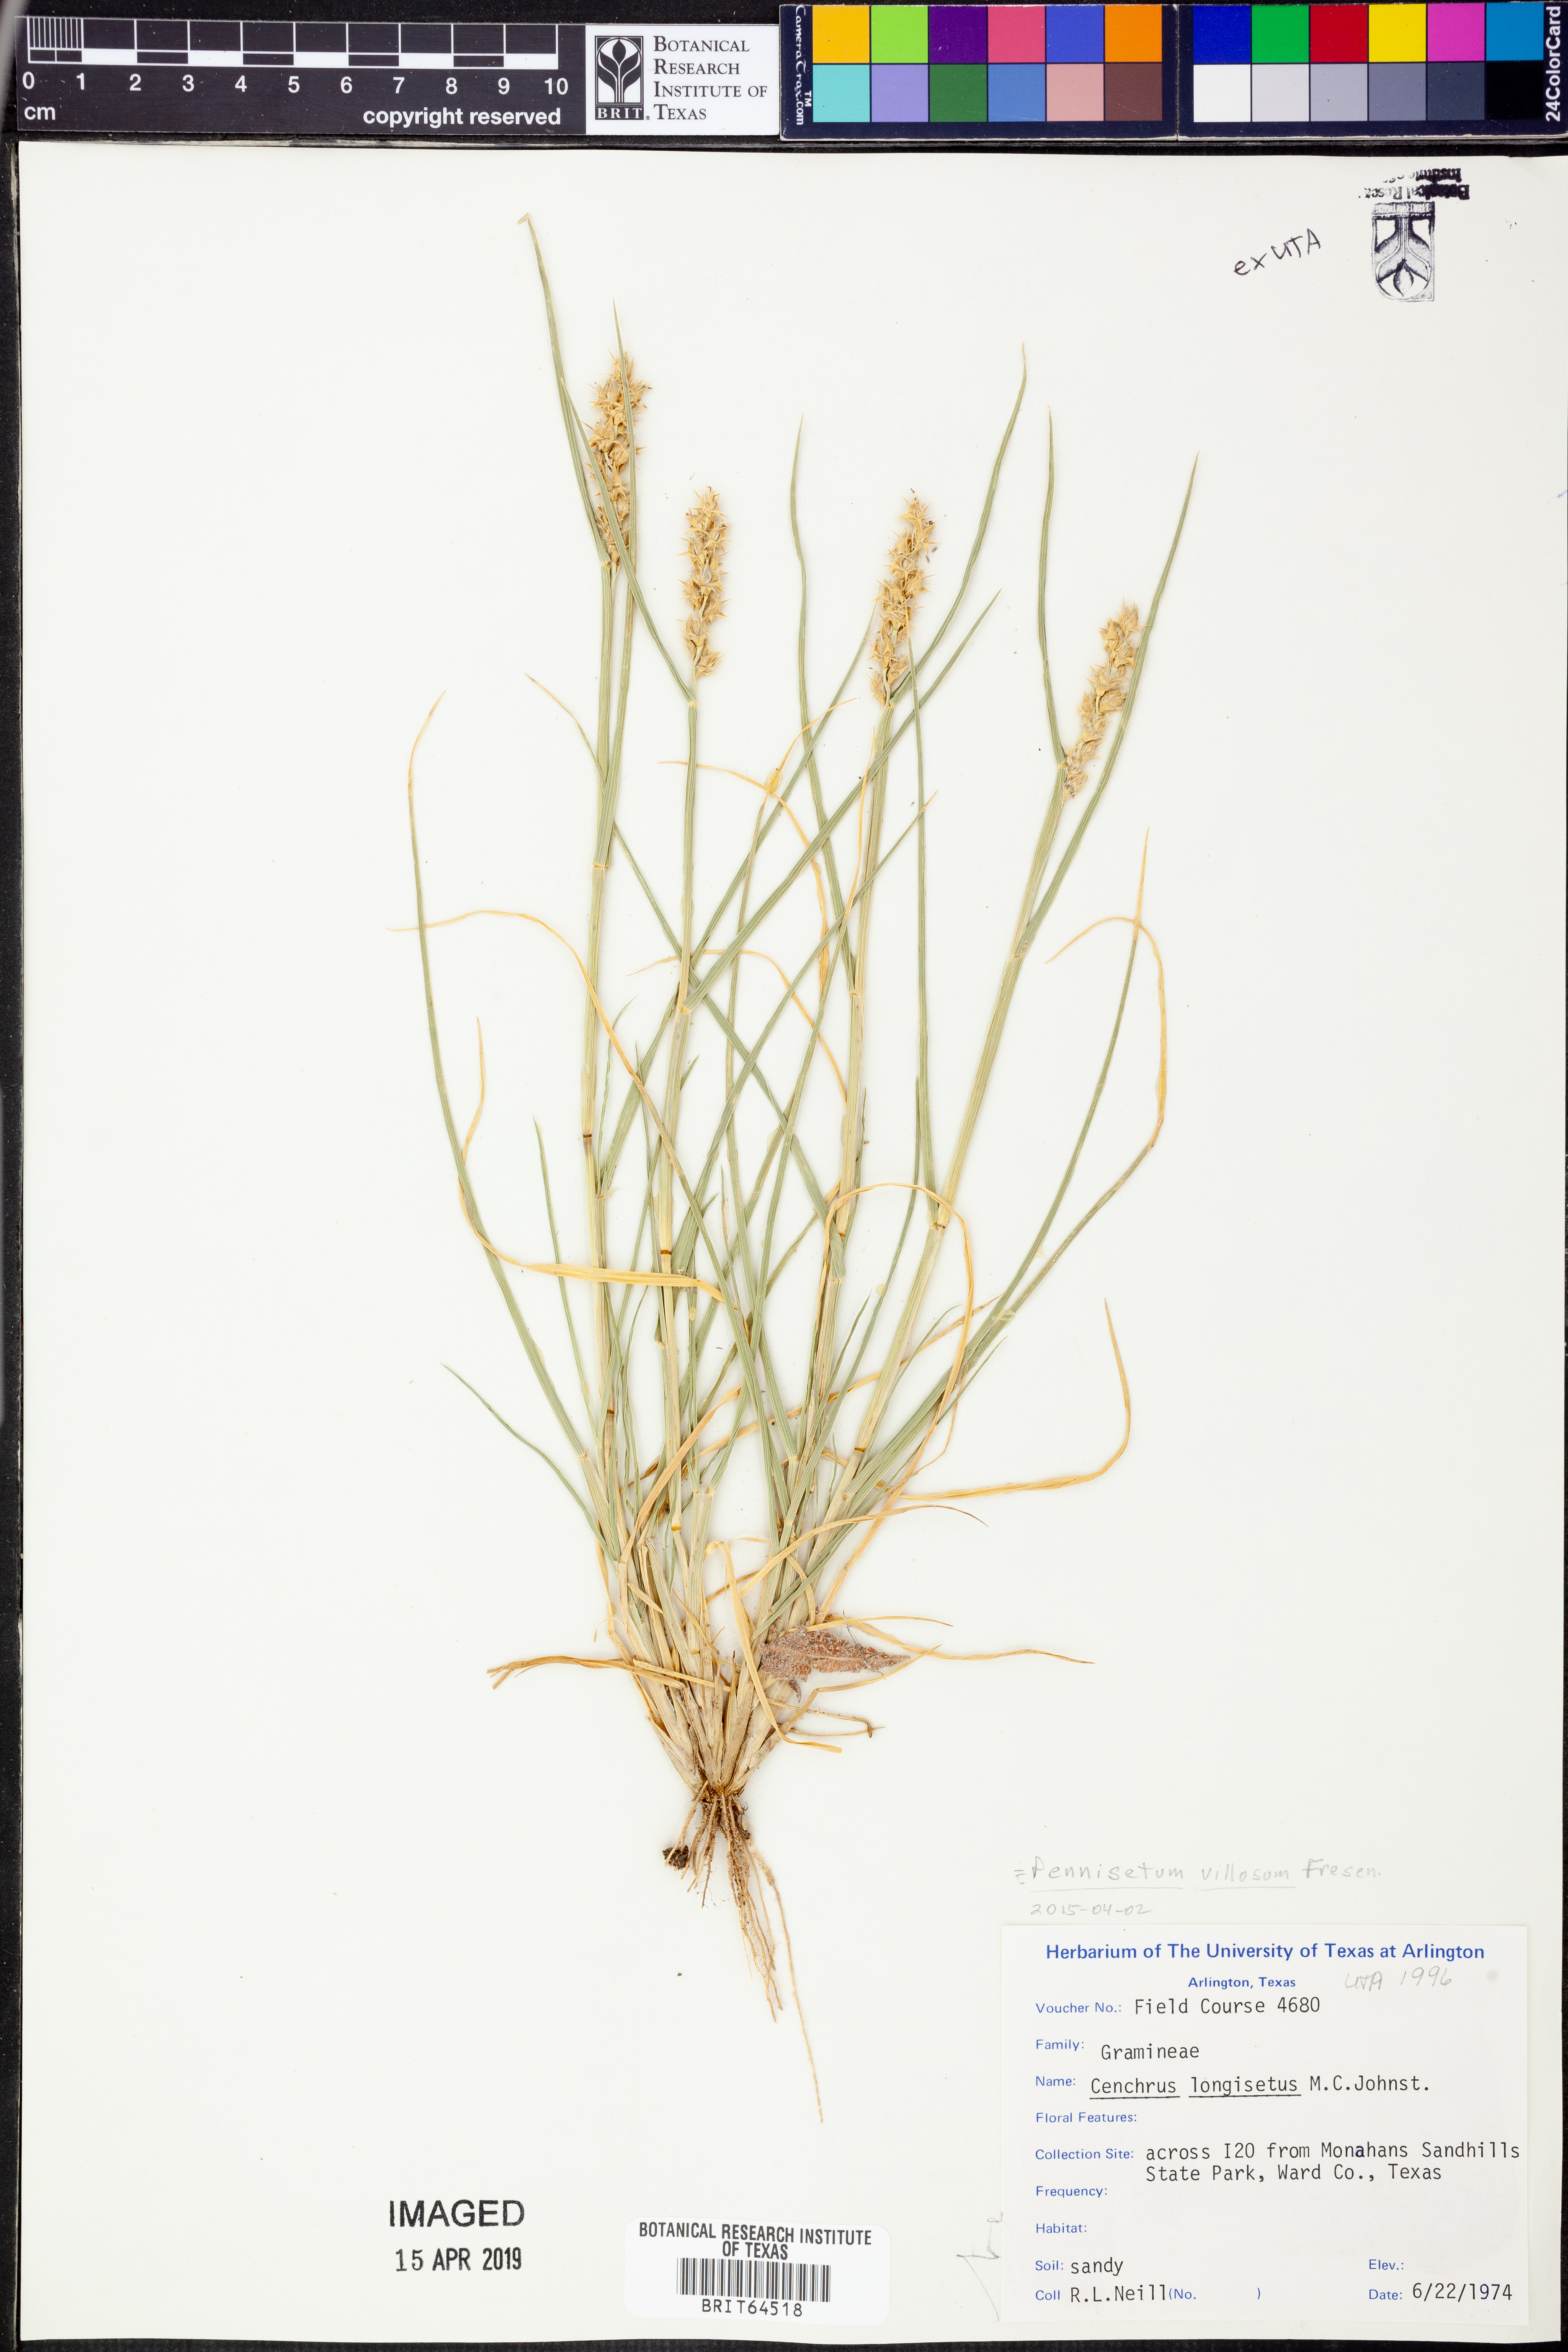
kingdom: Plantae
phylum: Tracheophyta
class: Liliopsida
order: Poales
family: Poaceae
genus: Cenchrus
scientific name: Cenchrus longisetus
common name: Feathertop
